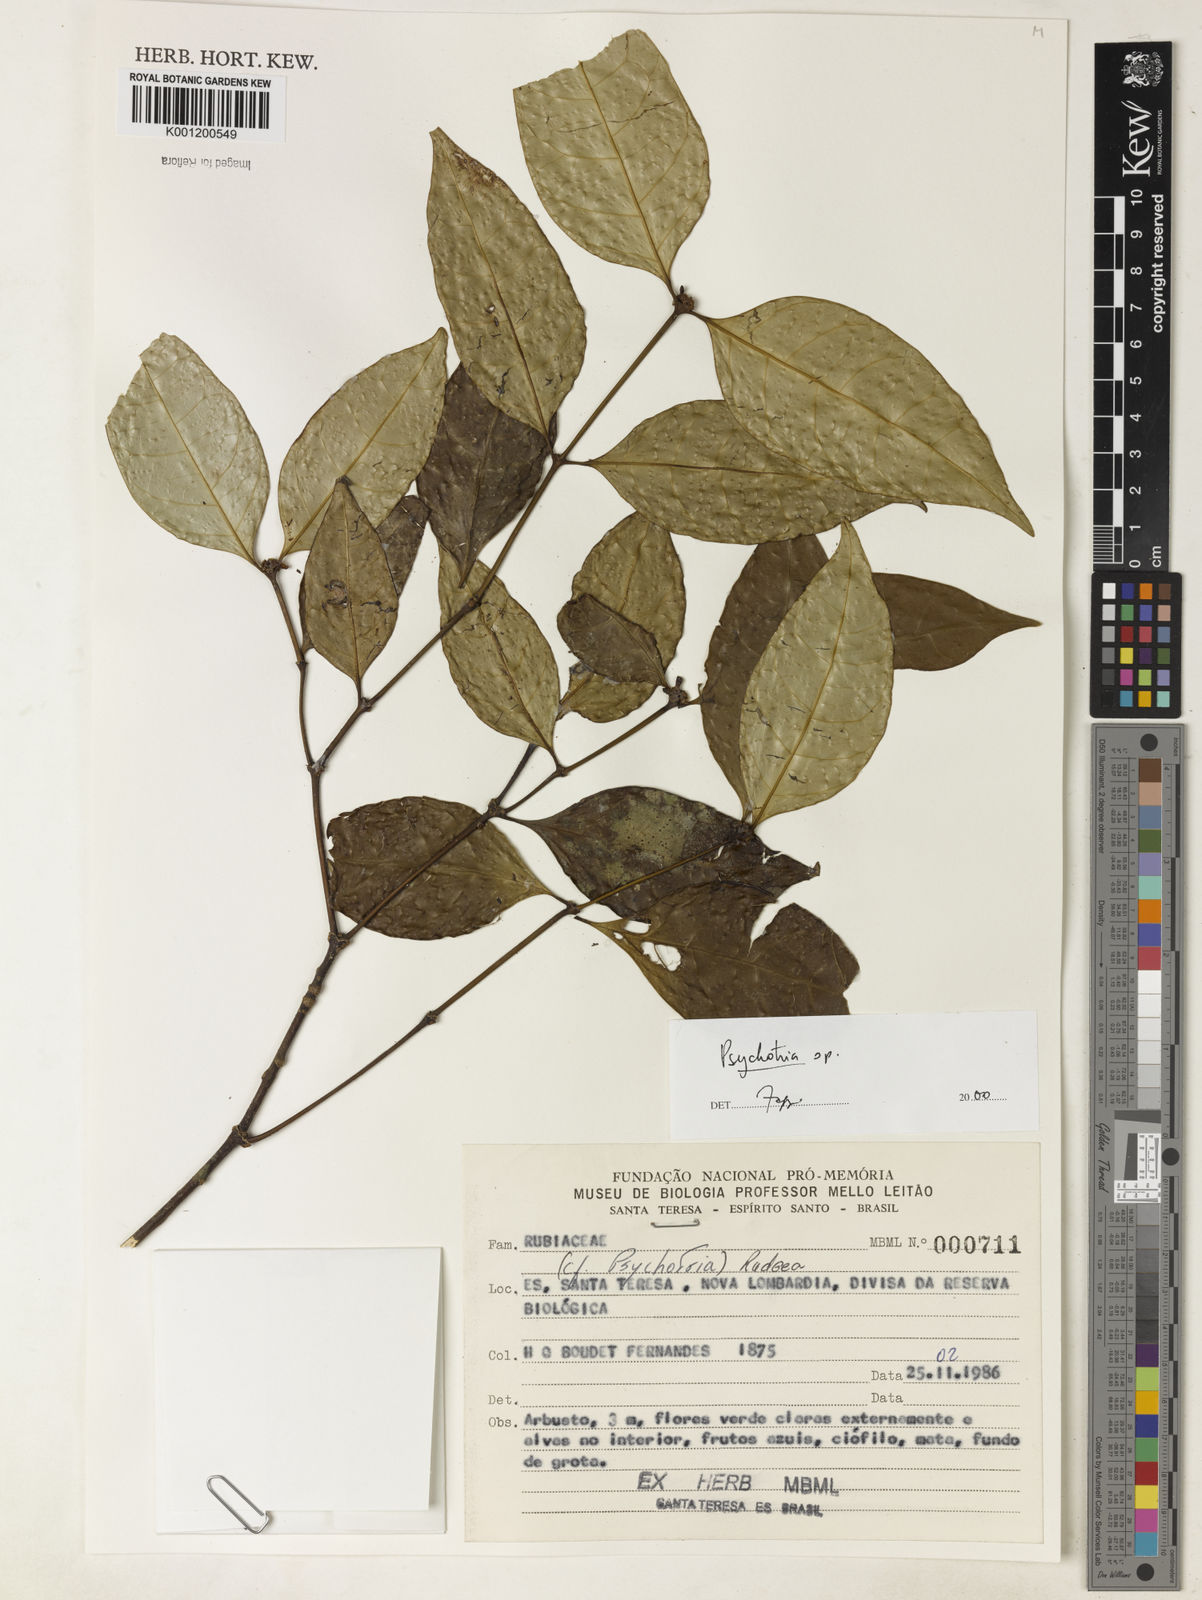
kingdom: Plantae
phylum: Tracheophyta
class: Magnoliopsida
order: Gentianales
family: Rubiaceae
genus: Psychotria
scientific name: Psychotria
